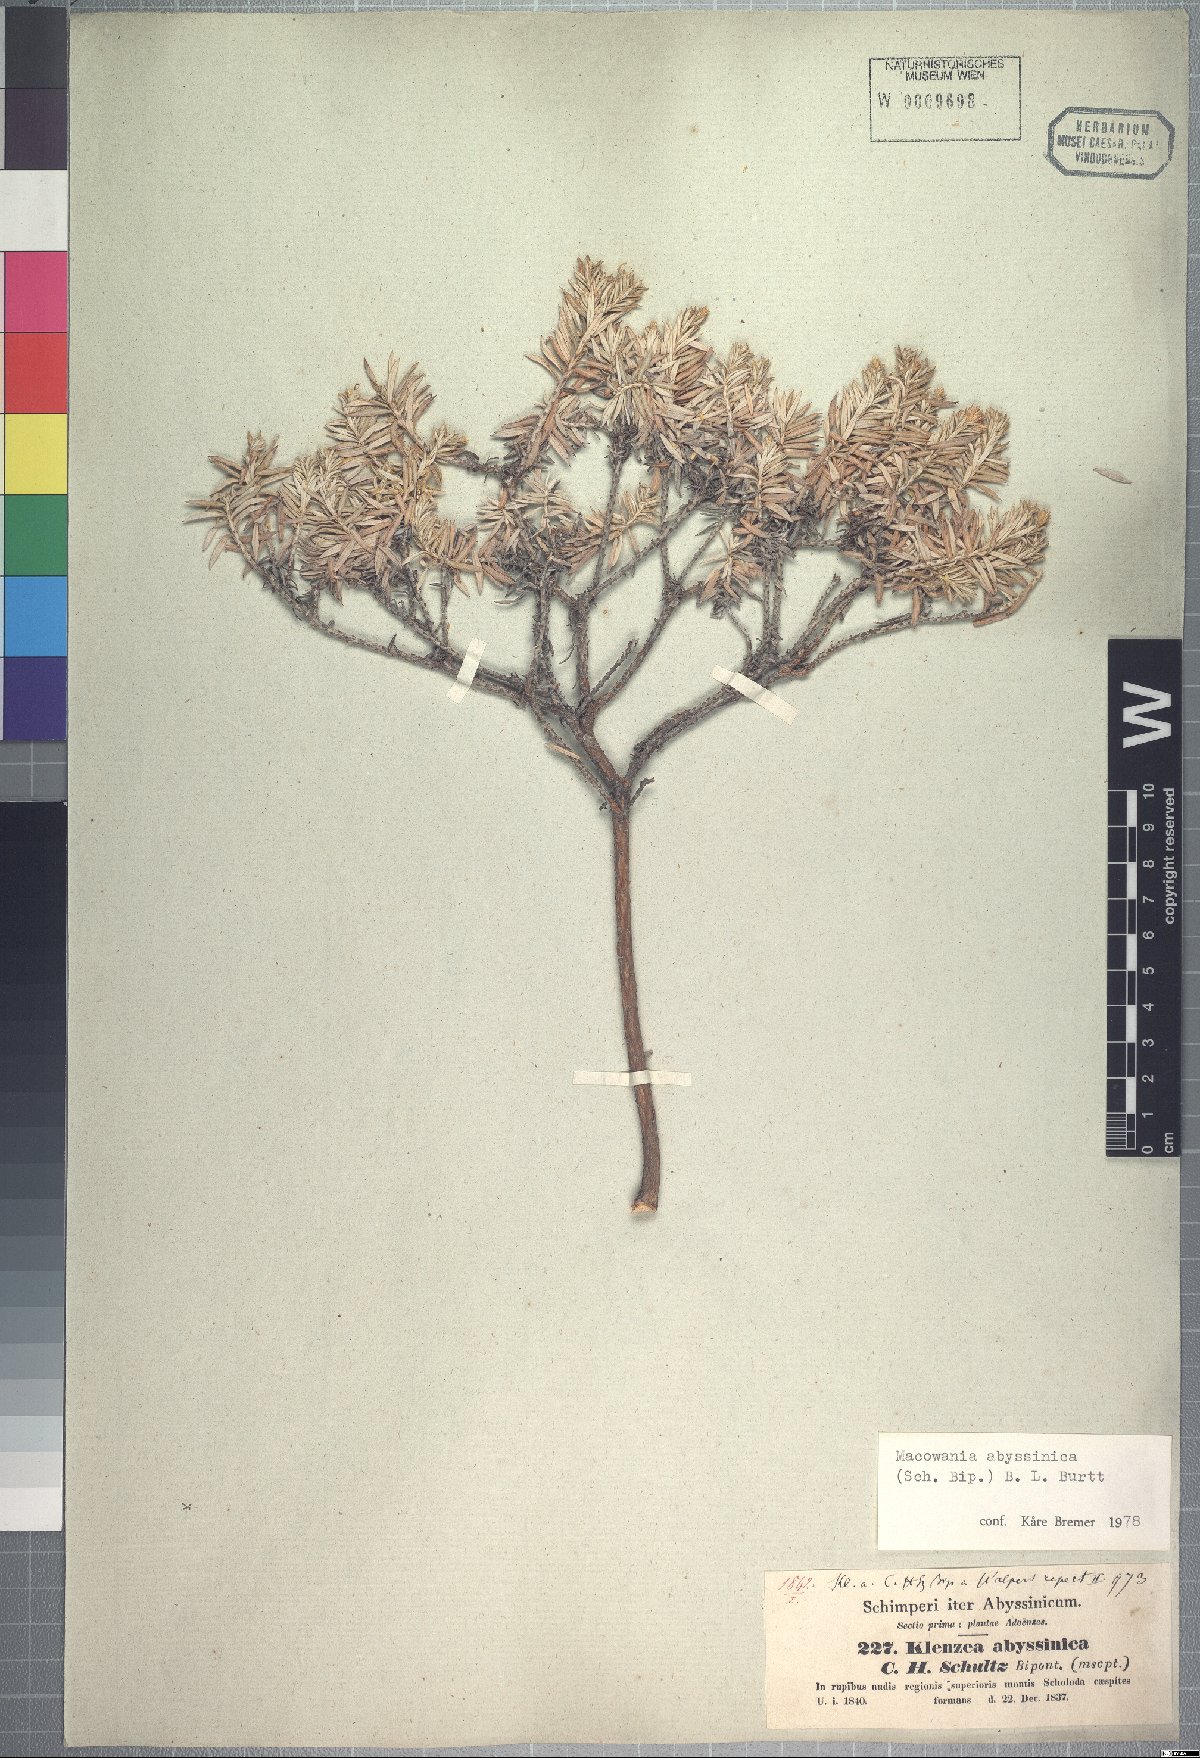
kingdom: Plantae
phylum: Tracheophyta
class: Magnoliopsida
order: Asterales
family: Asteraceae
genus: Arrowsmithia
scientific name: Arrowsmithia abyssinica
